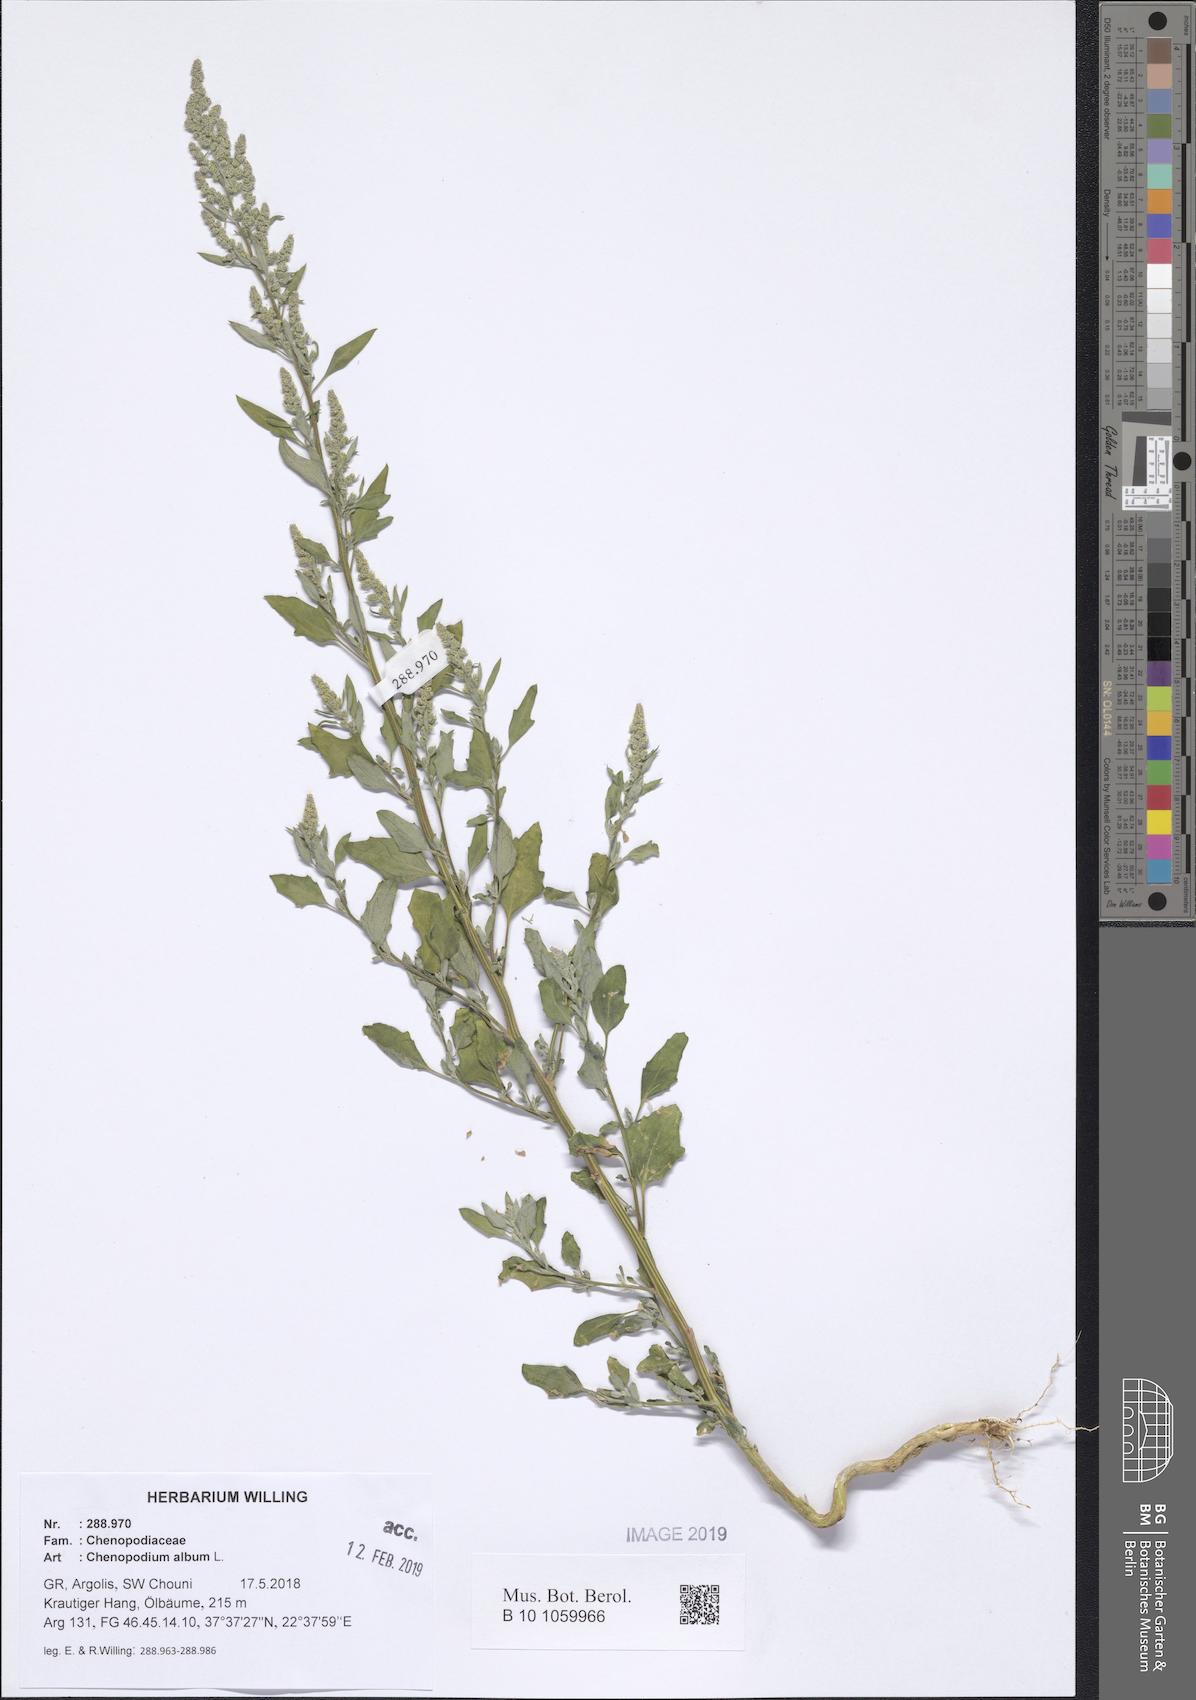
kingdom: Plantae
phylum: Tracheophyta
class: Magnoliopsida
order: Caryophyllales
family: Amaranthaceae
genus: Chenopodium
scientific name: Chenopodium album
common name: Fat-hen
